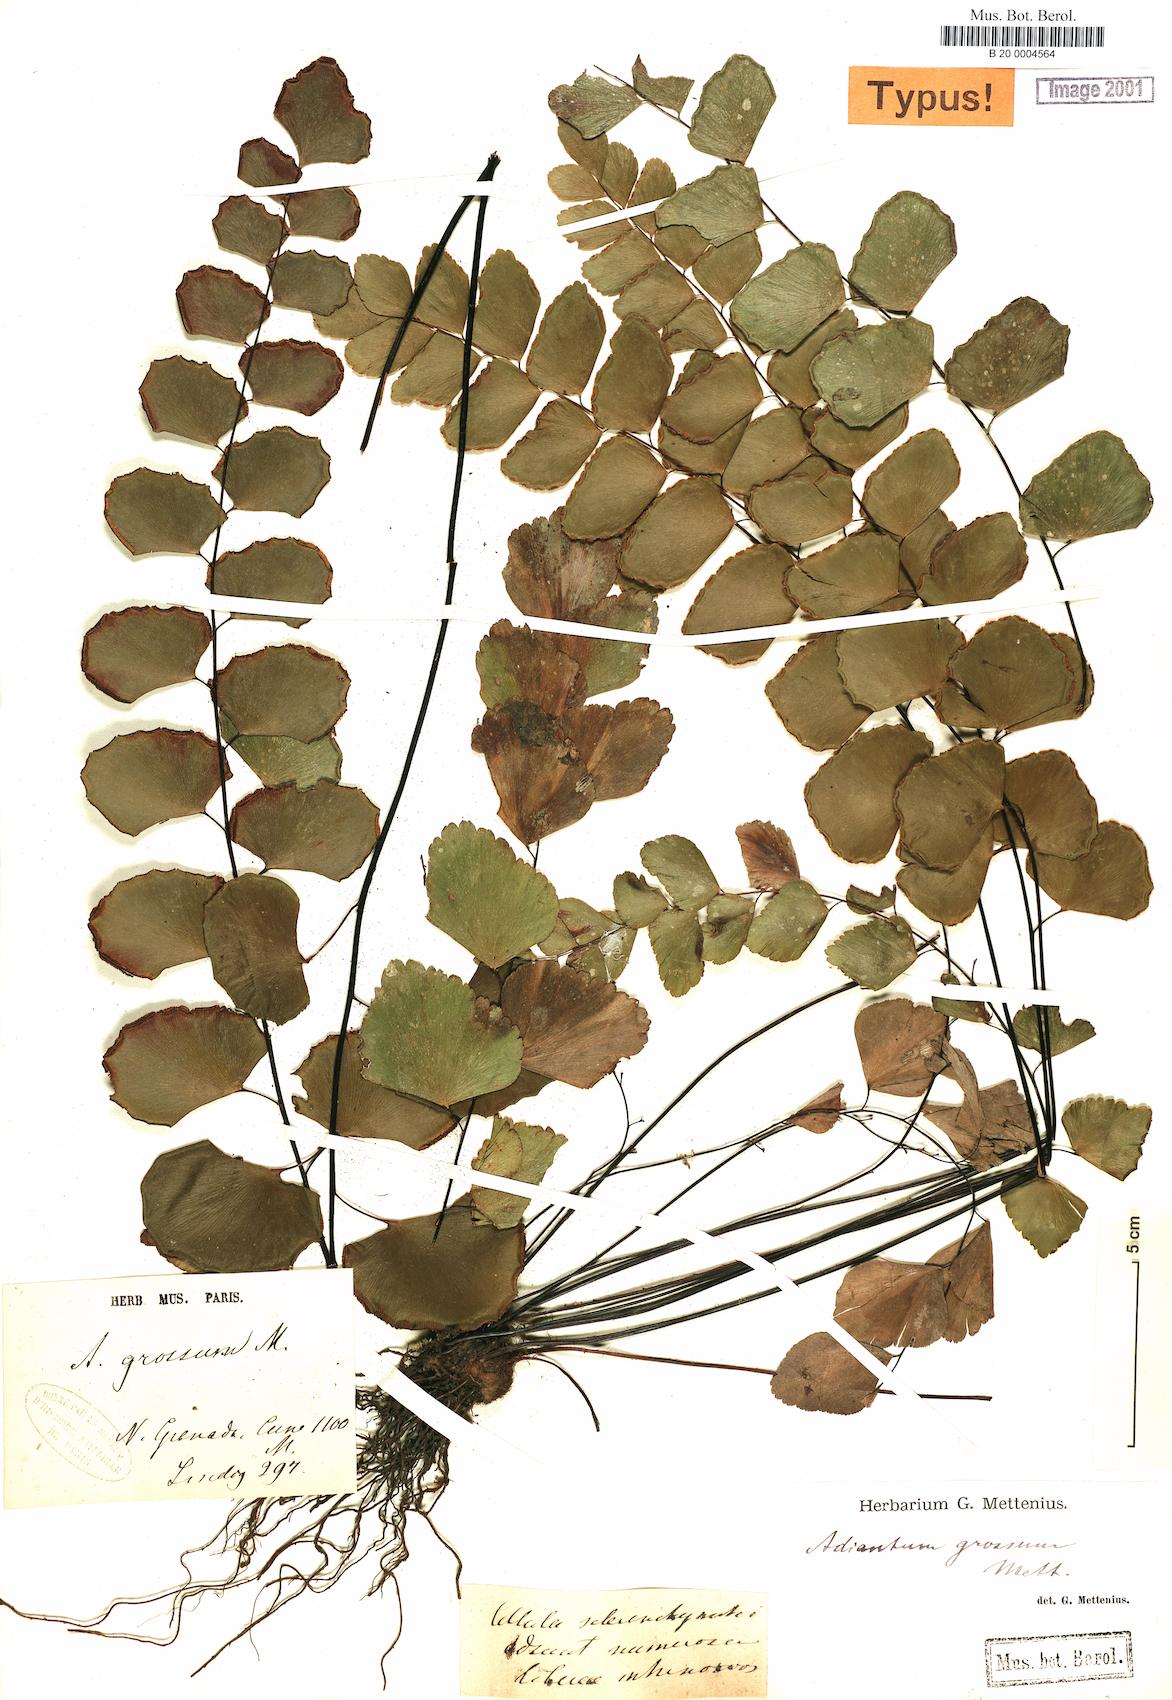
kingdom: Plantae
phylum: Tracheophyta
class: Polypodiopsida
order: Polypodiales
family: Pteridaceae
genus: Adiantum
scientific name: Adiantum grossum
